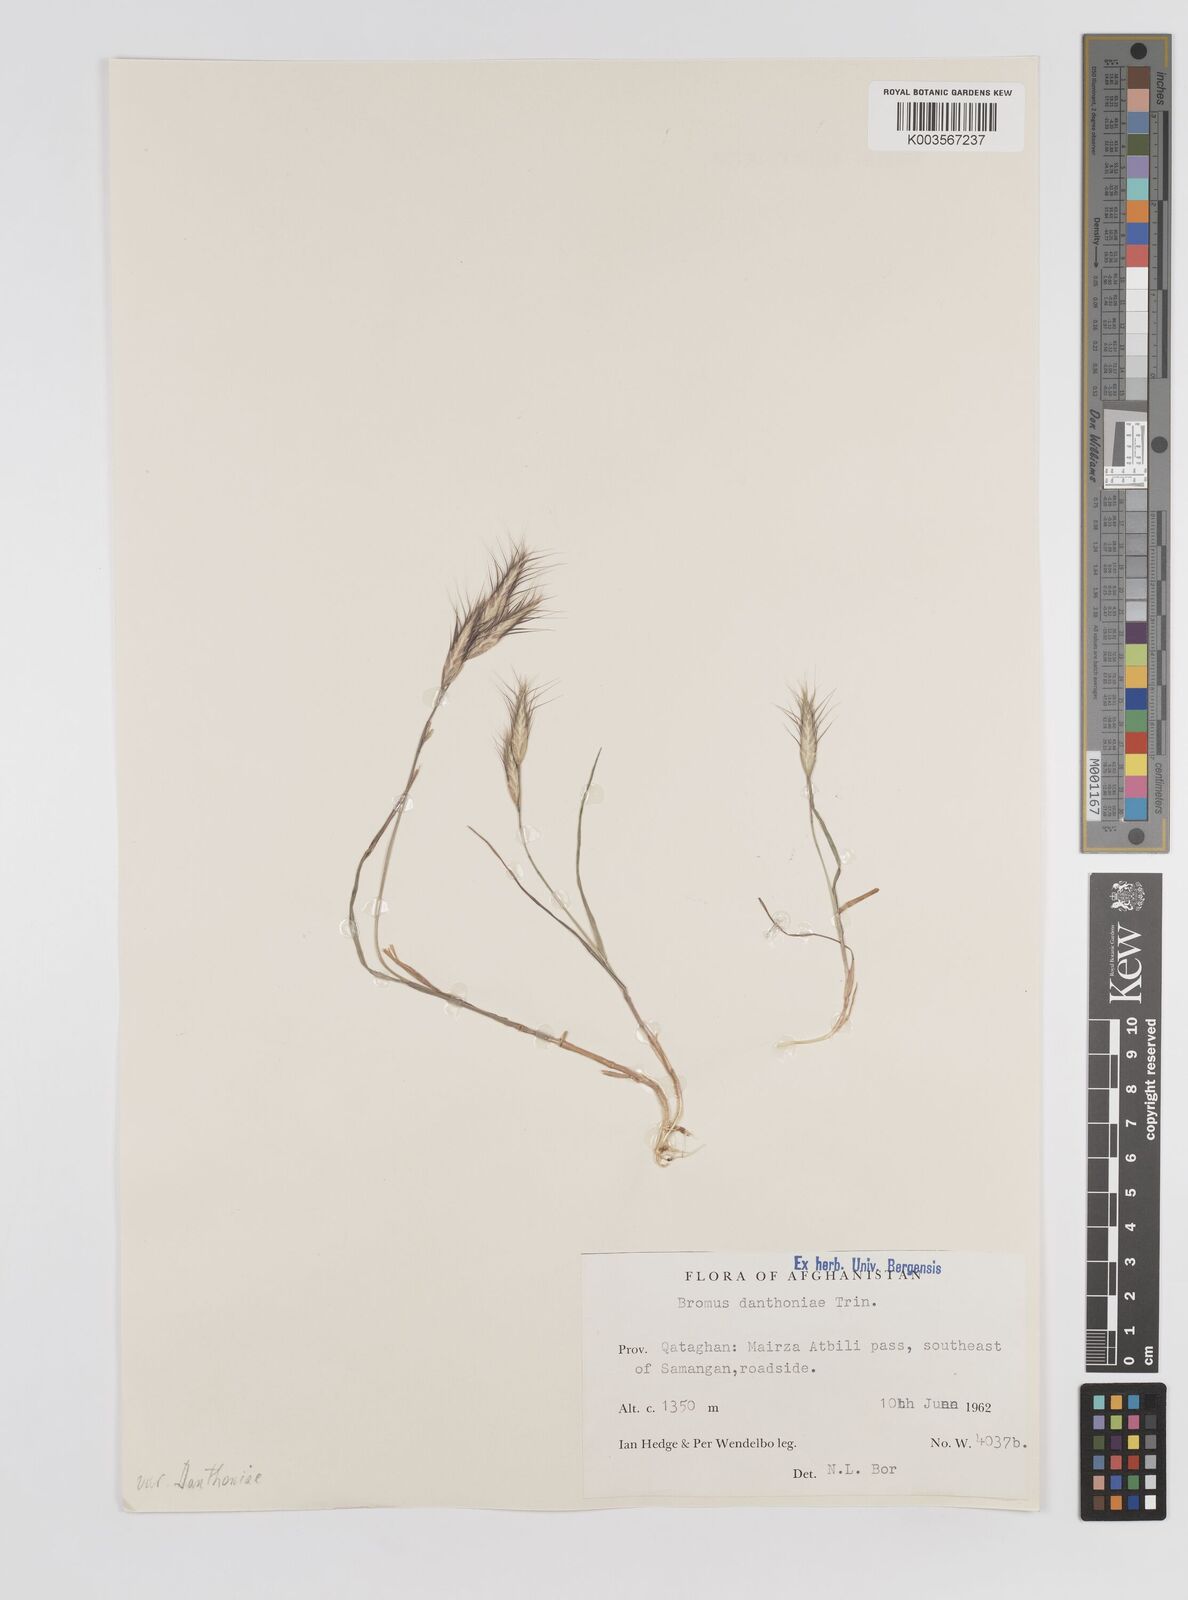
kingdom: Plantae
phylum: Tracheophyta
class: Liliopsida
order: Poales
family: Poaceae
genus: Bromus
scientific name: Bromus danthoniae
